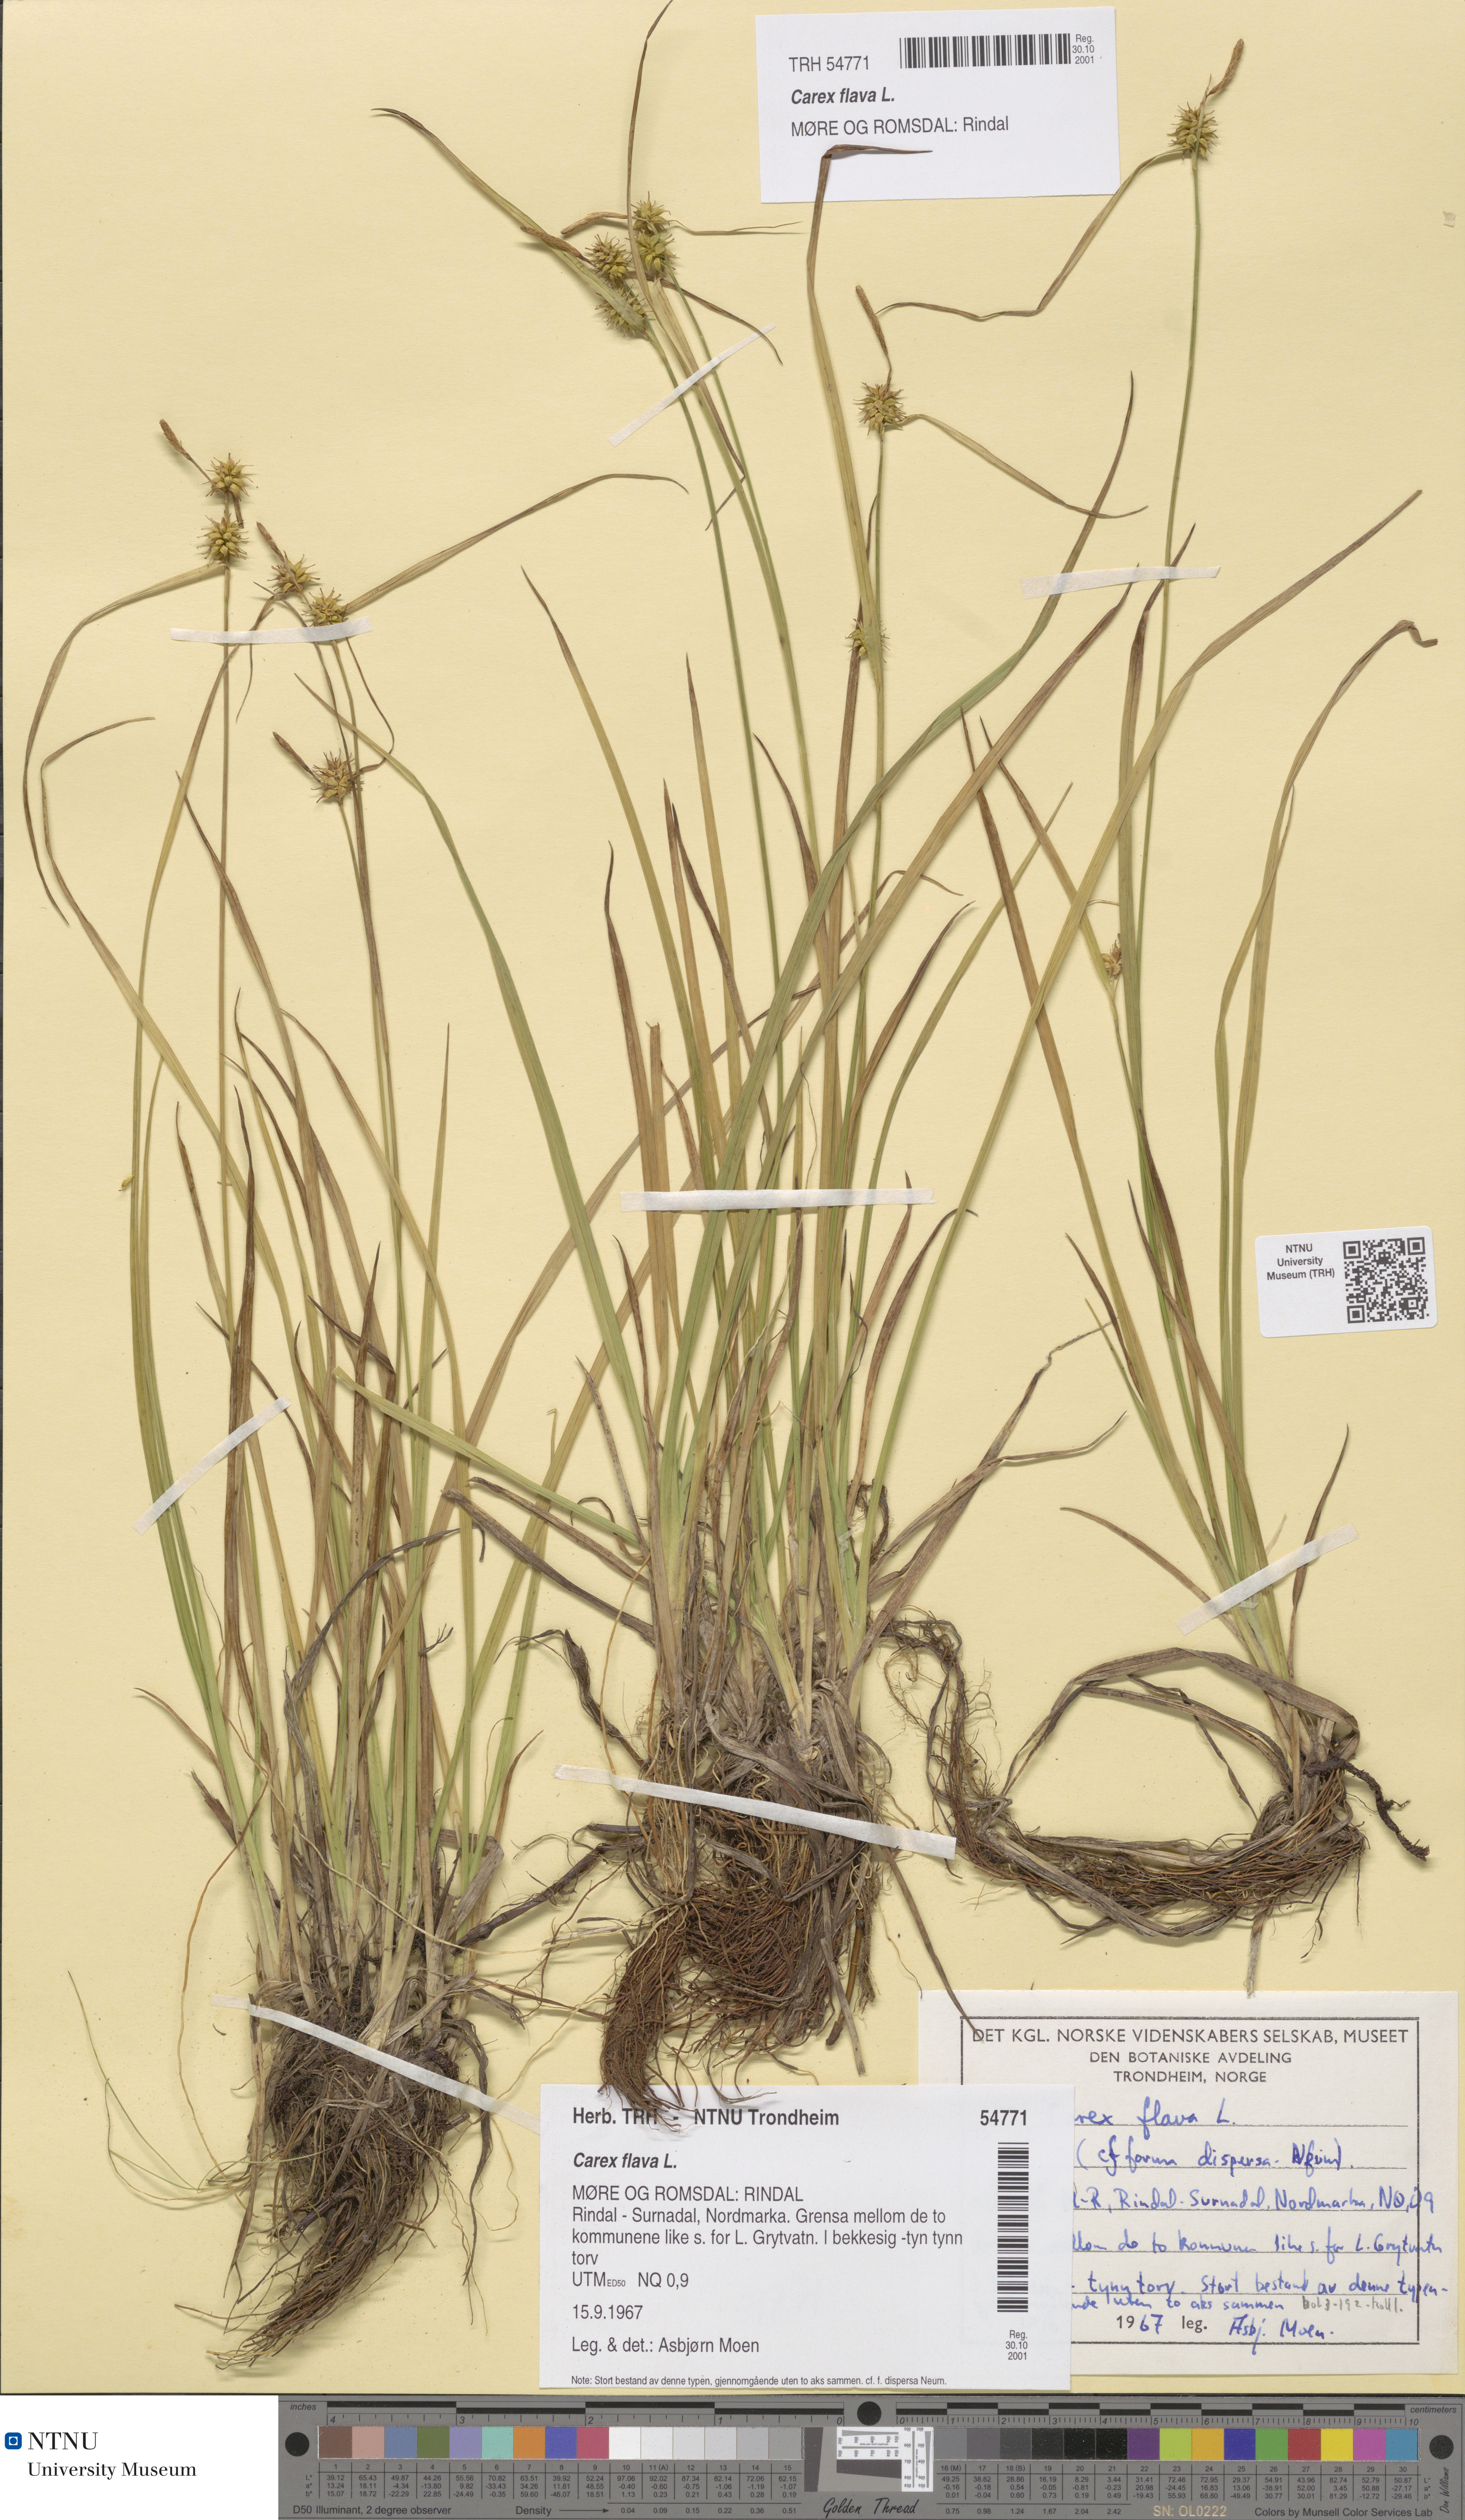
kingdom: Plantae
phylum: Tracheophyta
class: Liliopsida
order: Poales
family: Cyperaceae
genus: Carex
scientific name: Carex flava
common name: Large yellow-sedge
